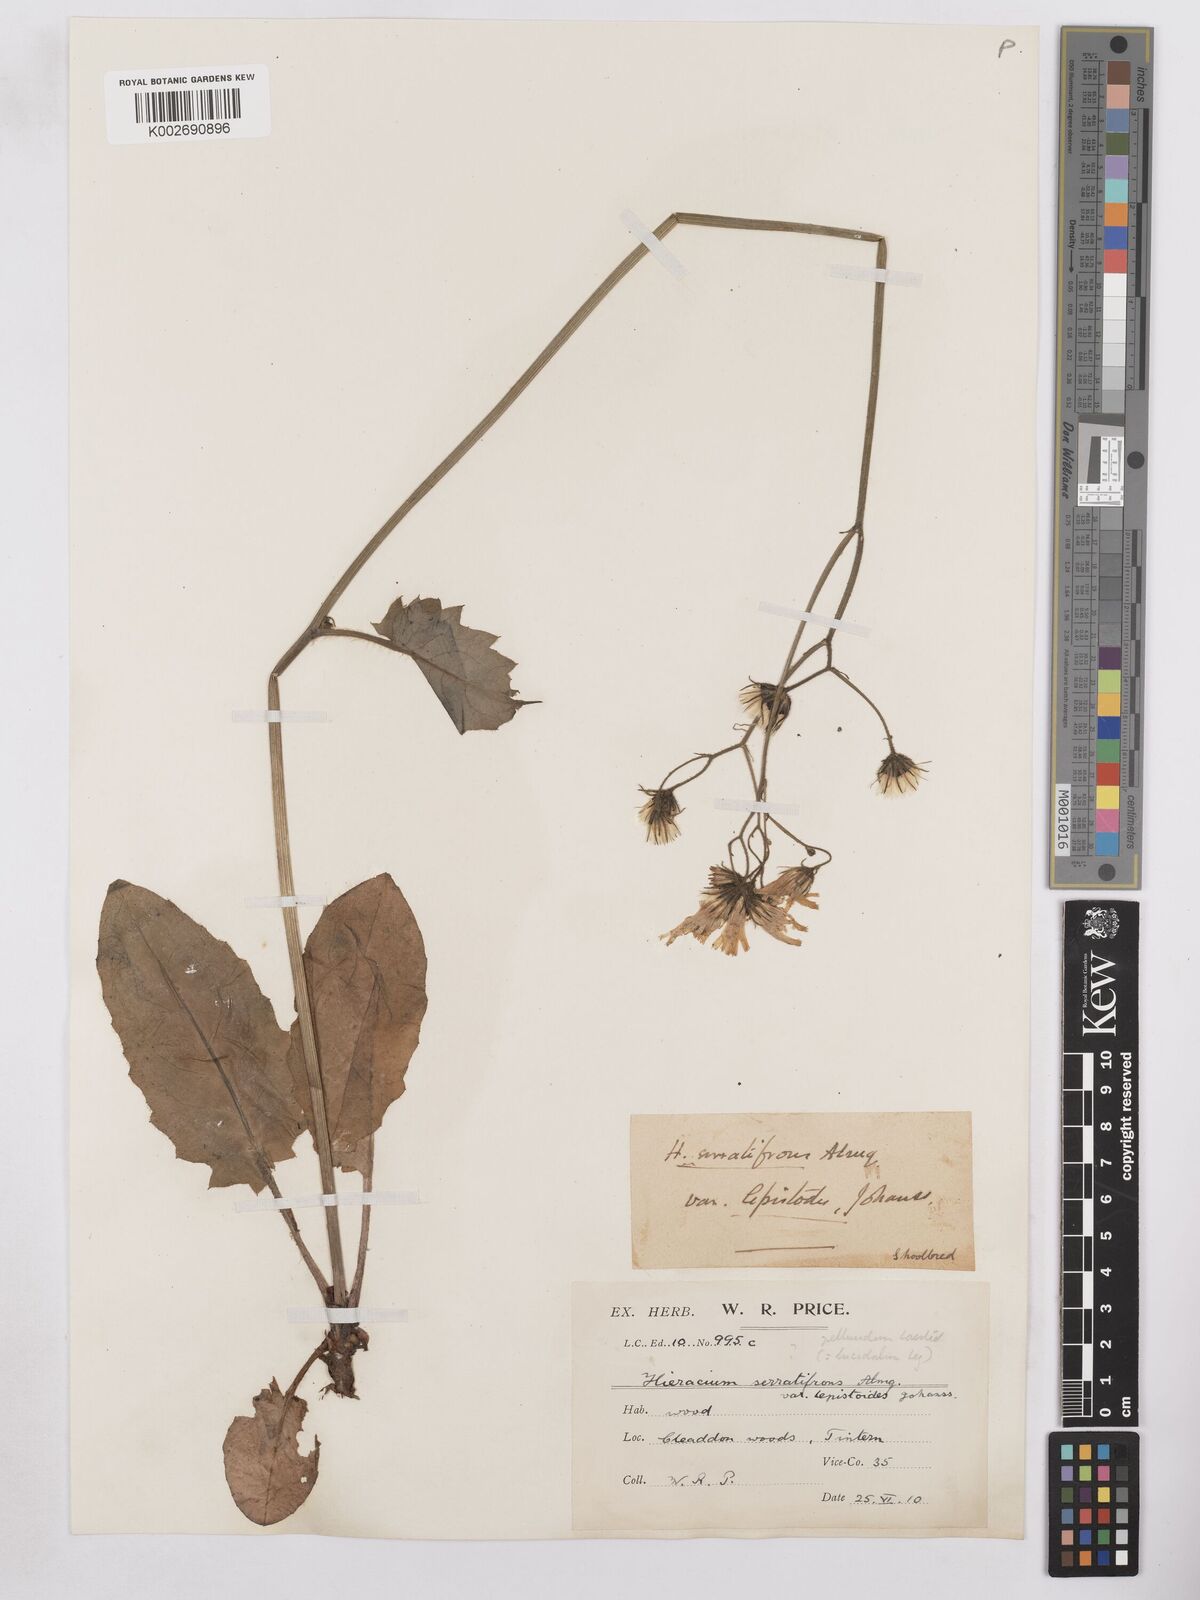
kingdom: Plantae
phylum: Tracheophyta
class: Magnoliopsida
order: Asterales
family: Asteraceae
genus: Hieracium
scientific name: Hieracium murorum
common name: Wall hawkweed
